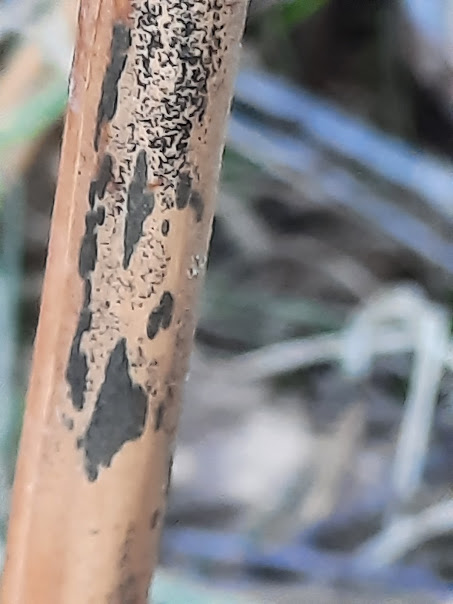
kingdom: Fungi
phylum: Ascomycota
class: Dothideomycetes
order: Pleosporales
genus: Rhopographus
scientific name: Rhopographus filicinus
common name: Bracken map
